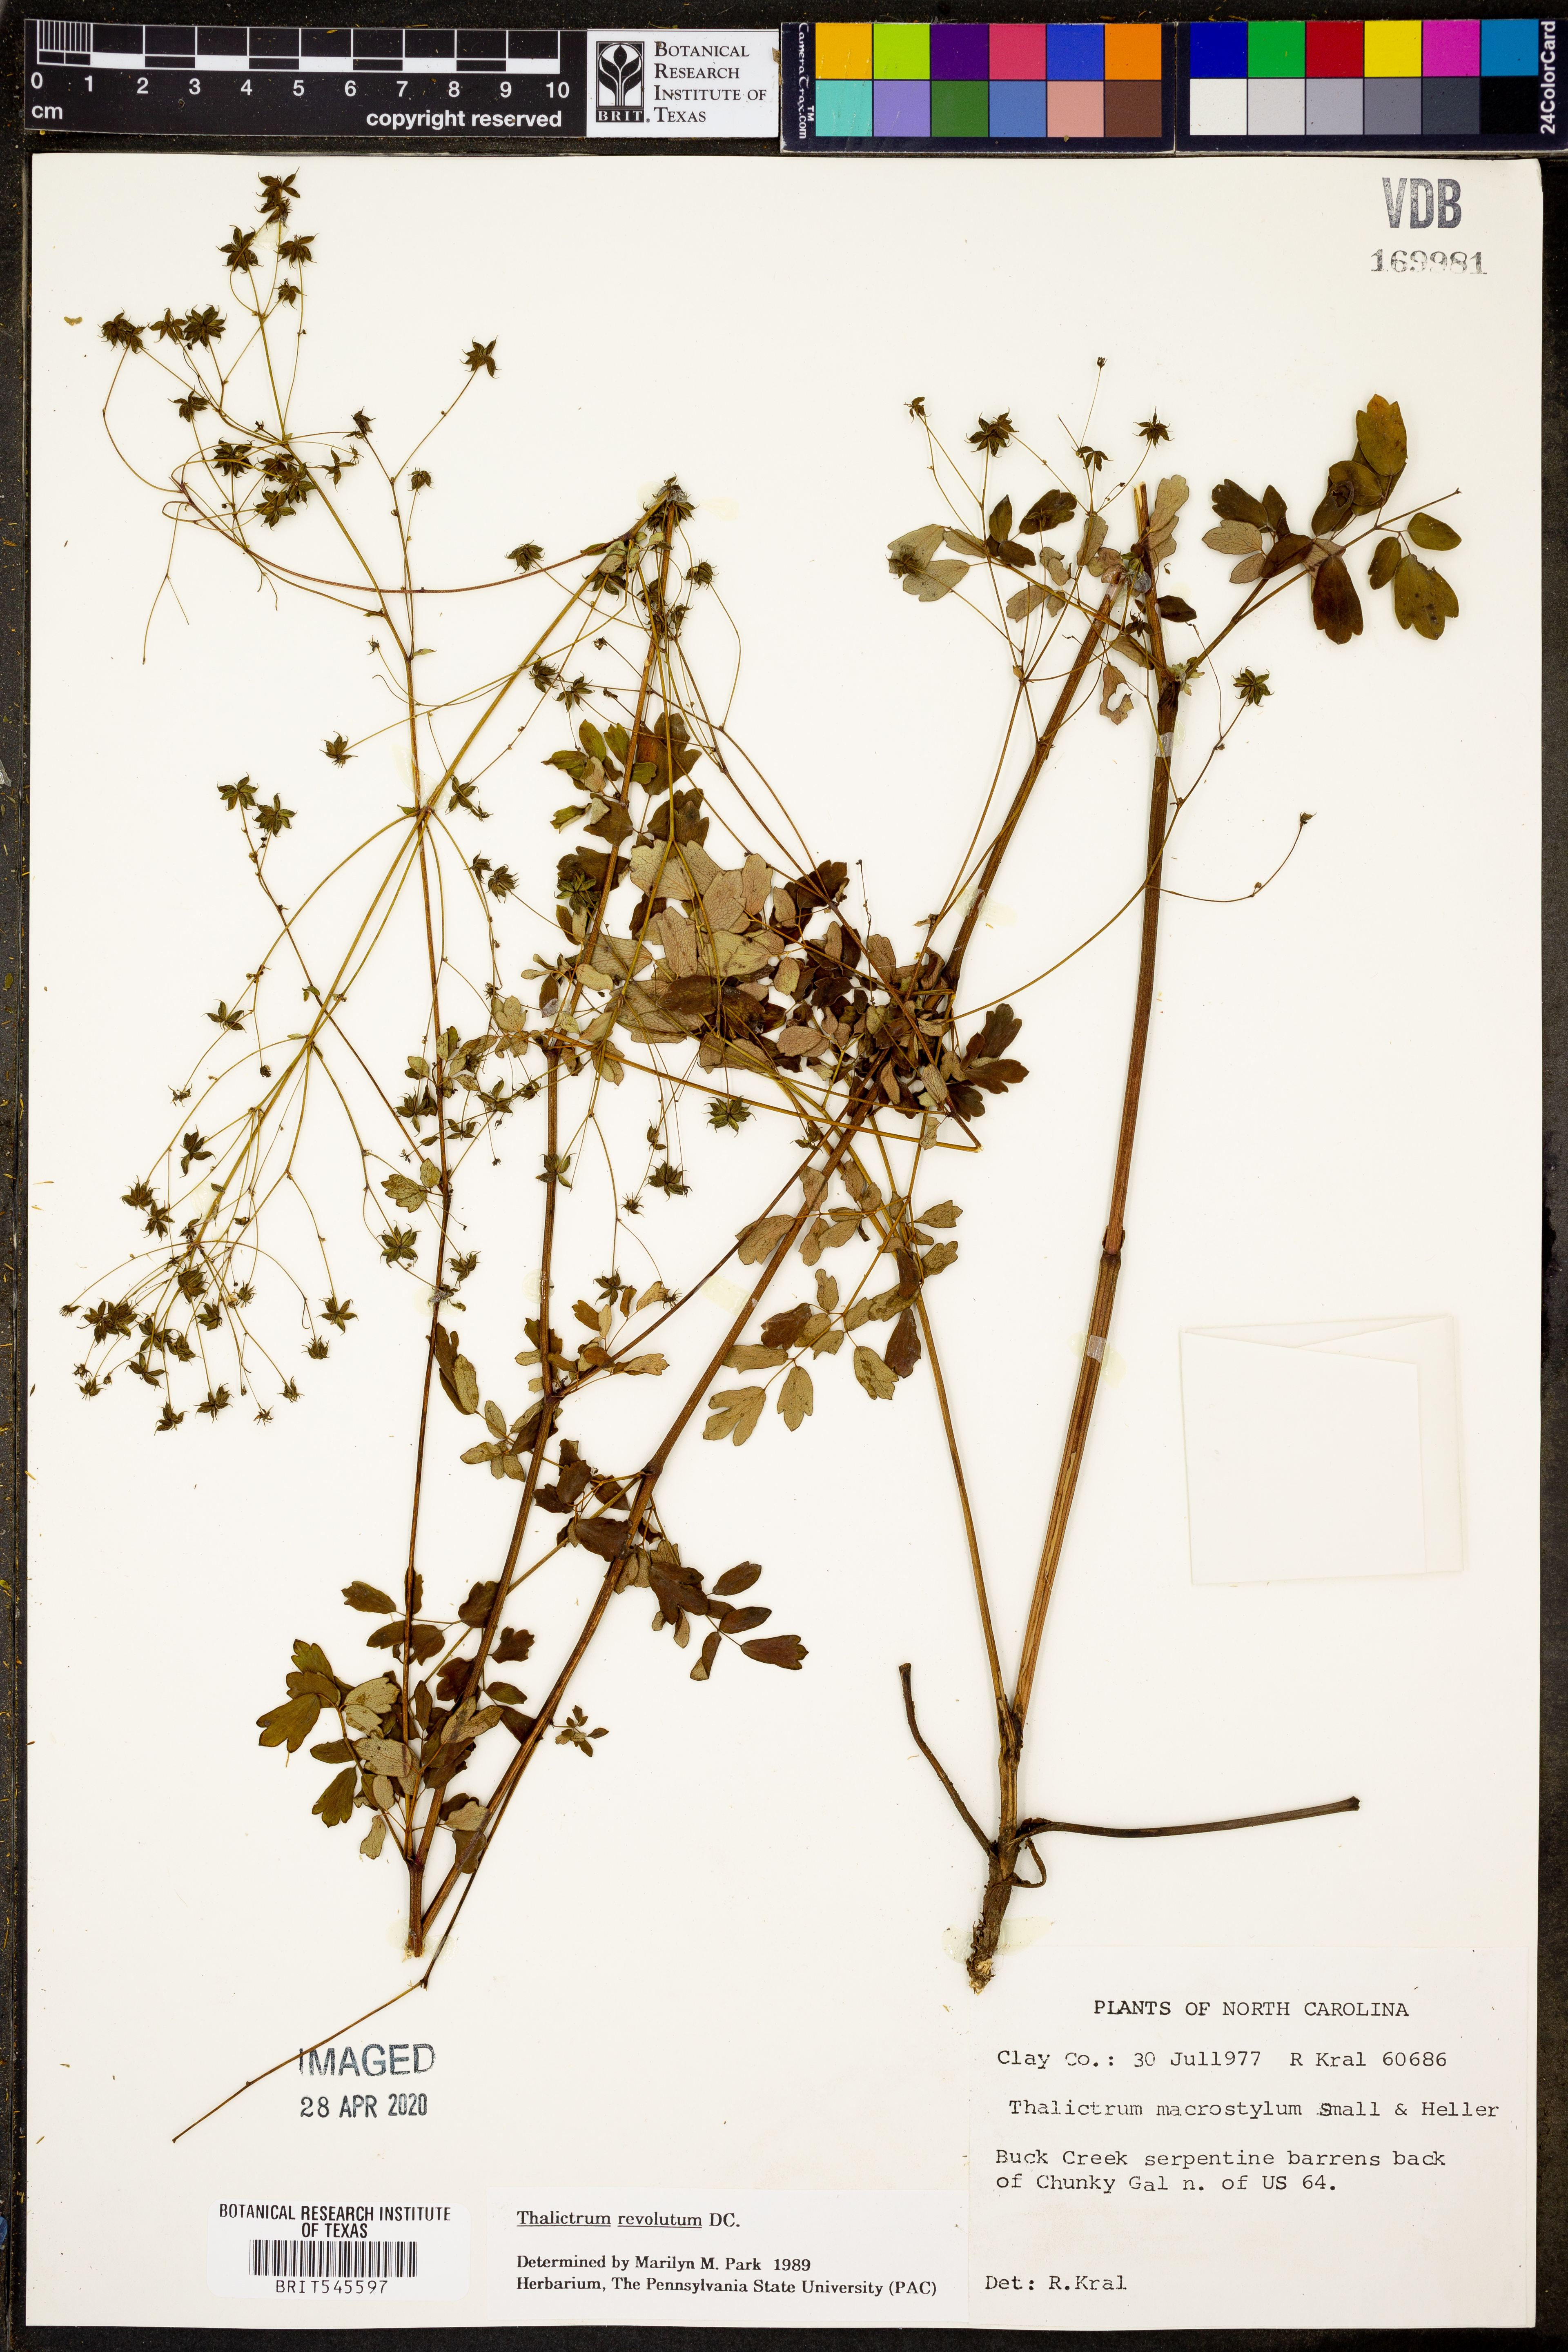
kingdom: Plantae
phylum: Tracheophyta
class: Magnoliopsida
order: Ranunculales
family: Ranunculaceae
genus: Thalictrum
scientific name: Thalictrum revolutum
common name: Waxy meadow-rue
